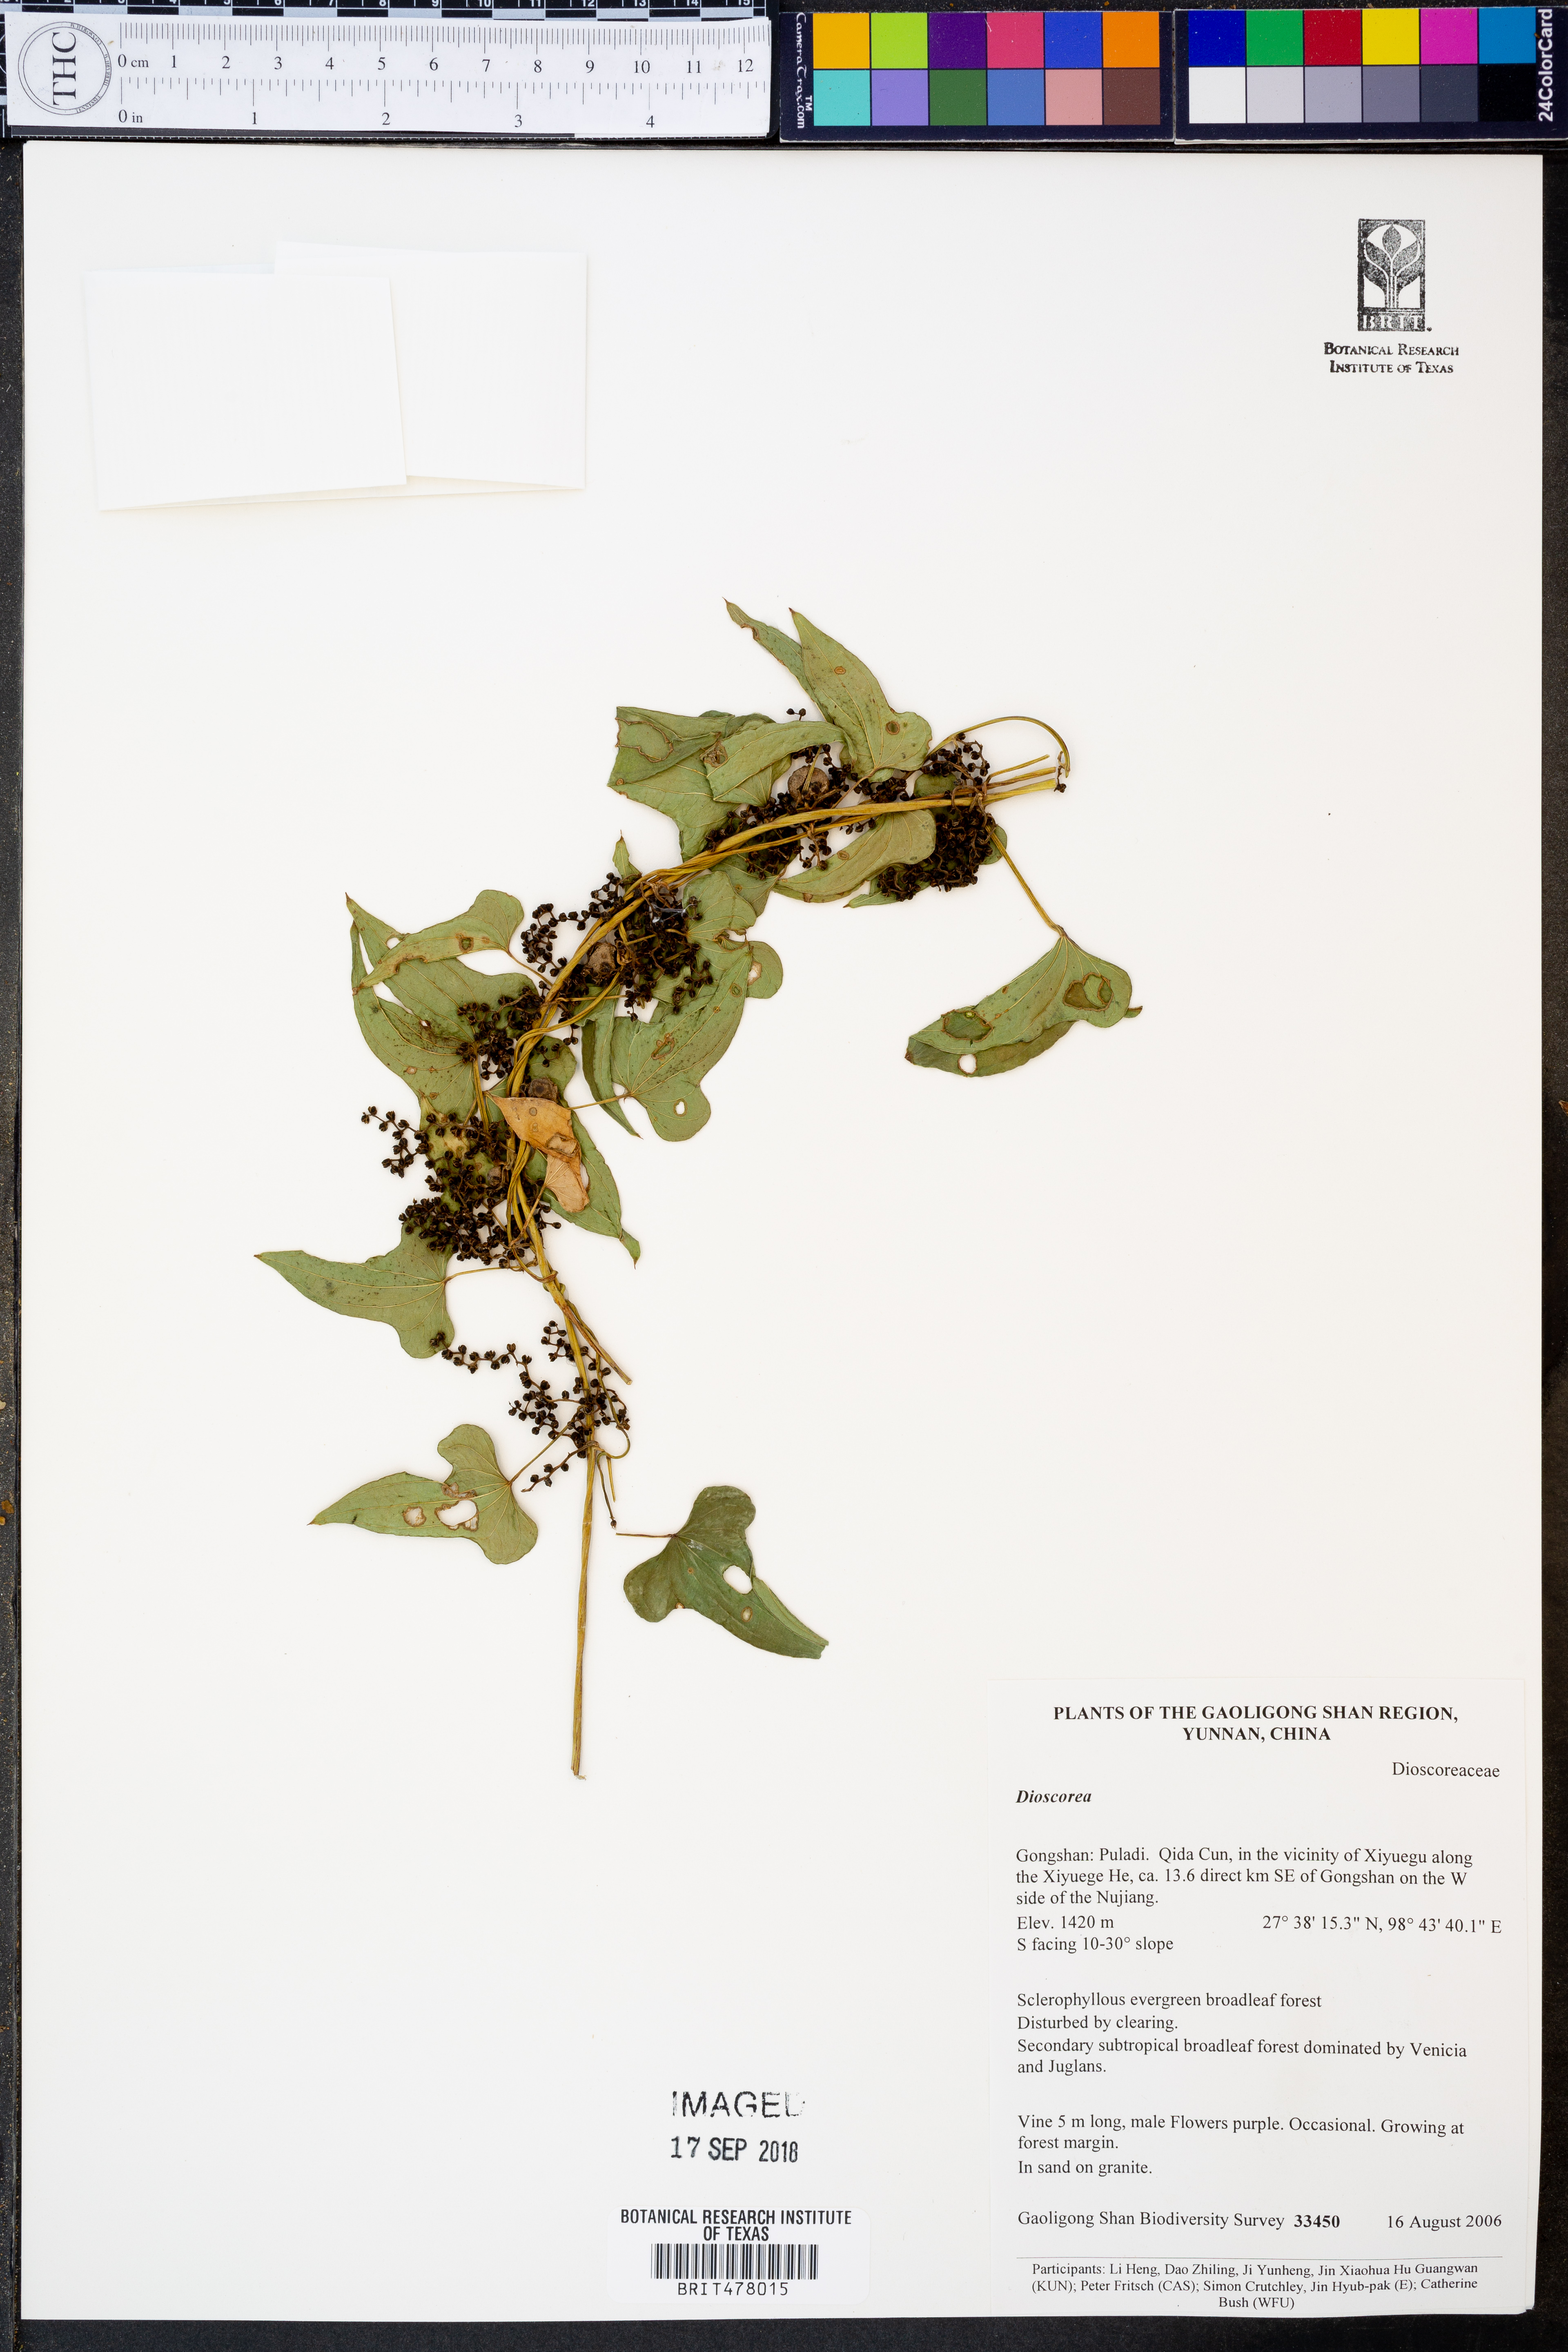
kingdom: Plantae
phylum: Tracheophyta
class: Liliopsida
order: Dioscoreales
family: Dioscoreaceae
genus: Dioscorea
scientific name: Dioscorea
